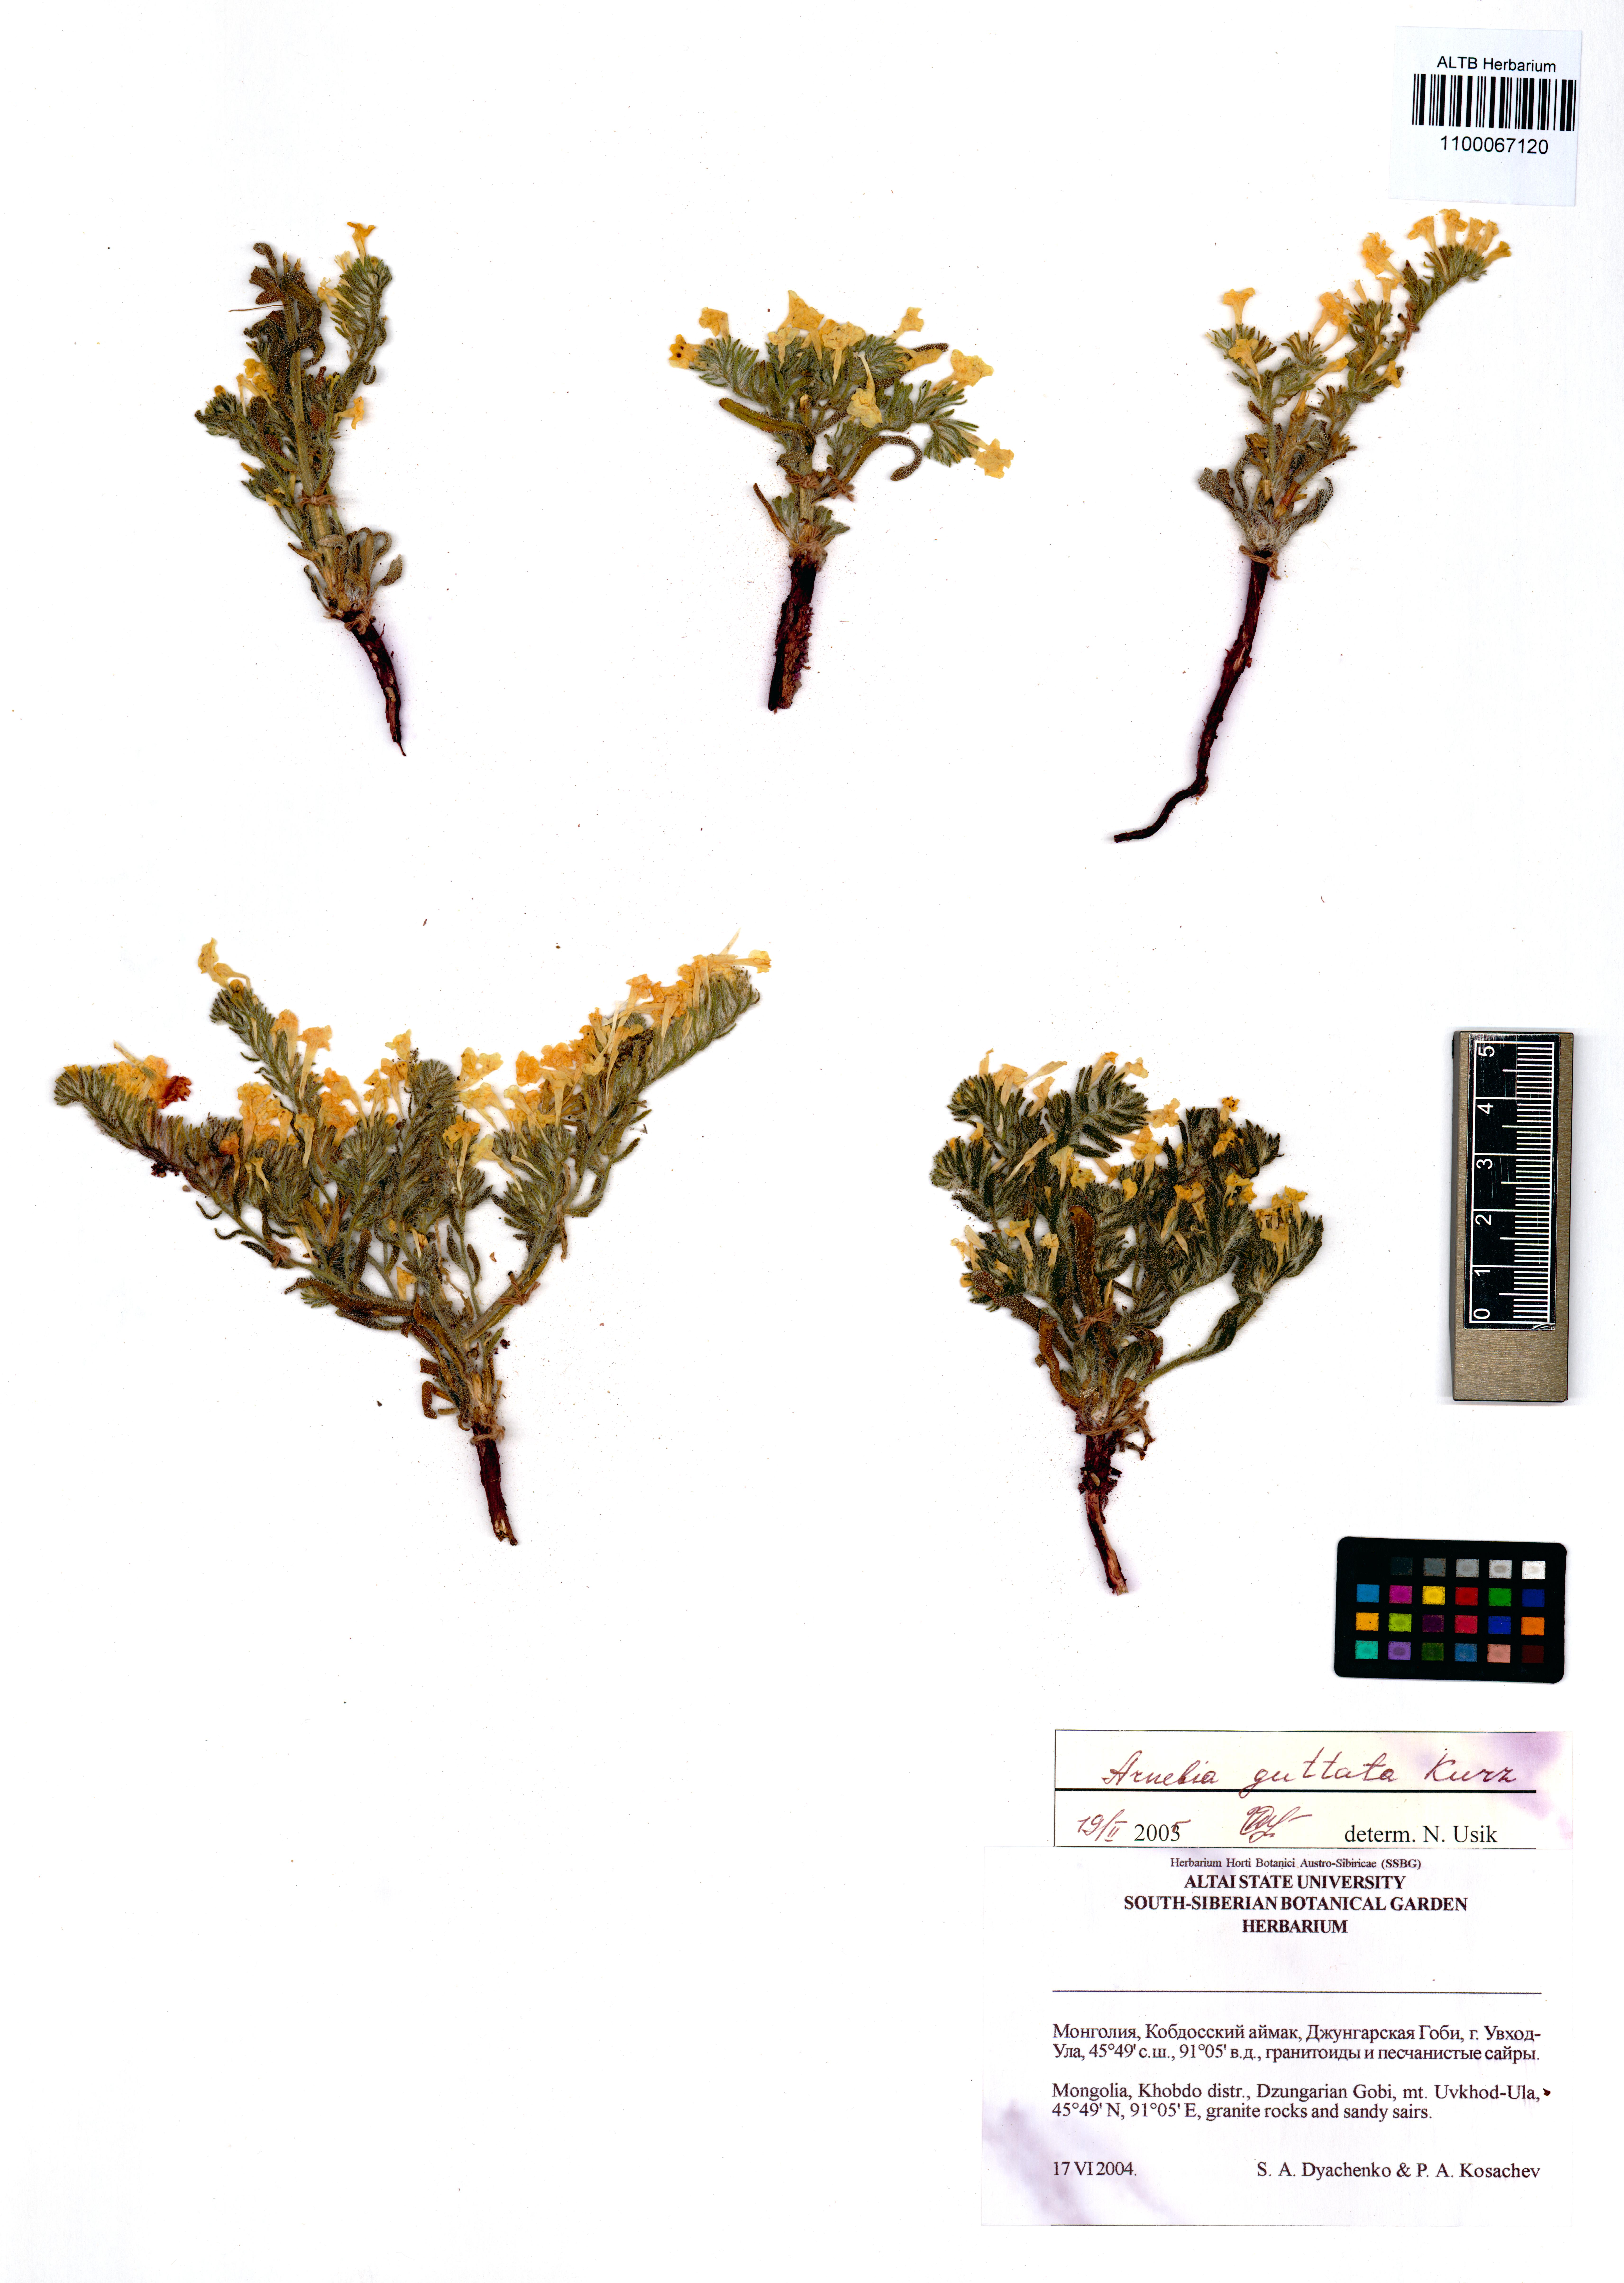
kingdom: Plantae
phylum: Tracheophyta
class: Magnoliopsida
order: Boraginales
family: Boraginaceae
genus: Arnebia
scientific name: Arnebia guttata
